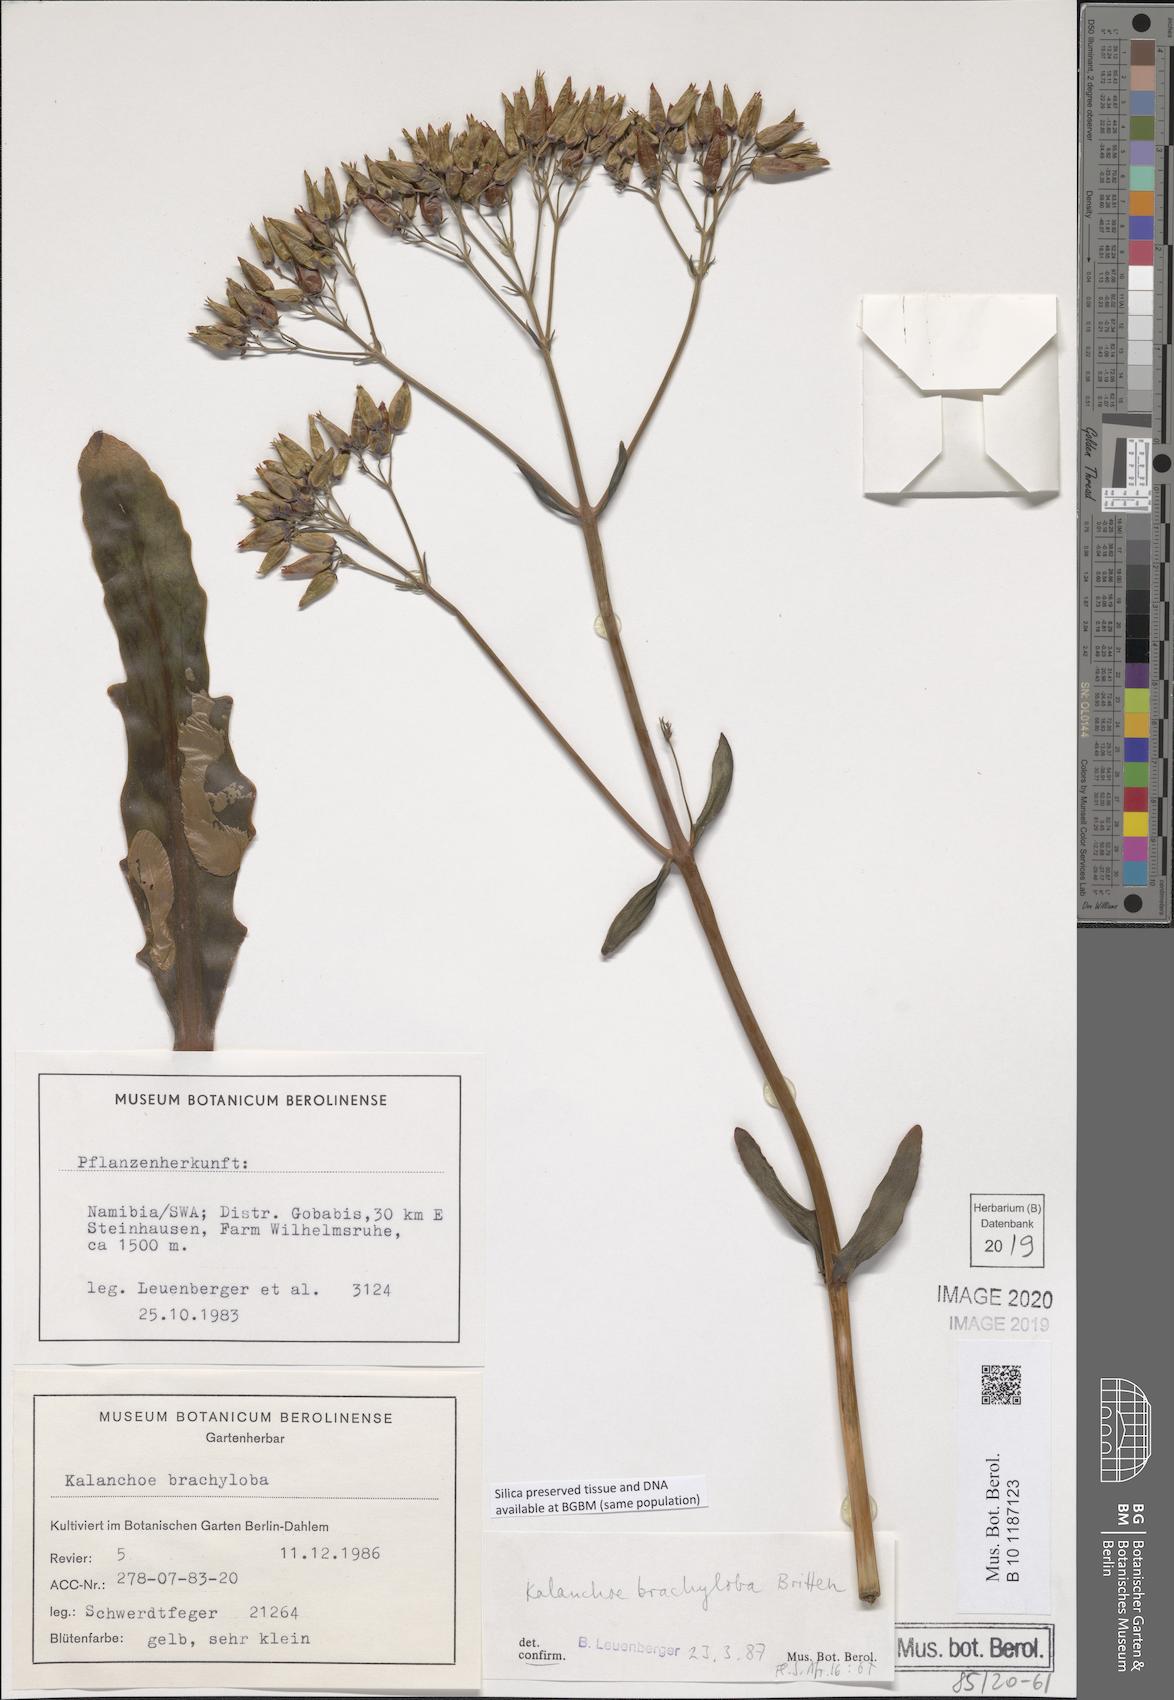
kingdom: Plantae
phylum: Tracheophyta
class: Magnoliopsida
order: Saxifragales
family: Crassulaceae
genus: Kalanchoe
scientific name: Kalanchoe brachyloba
